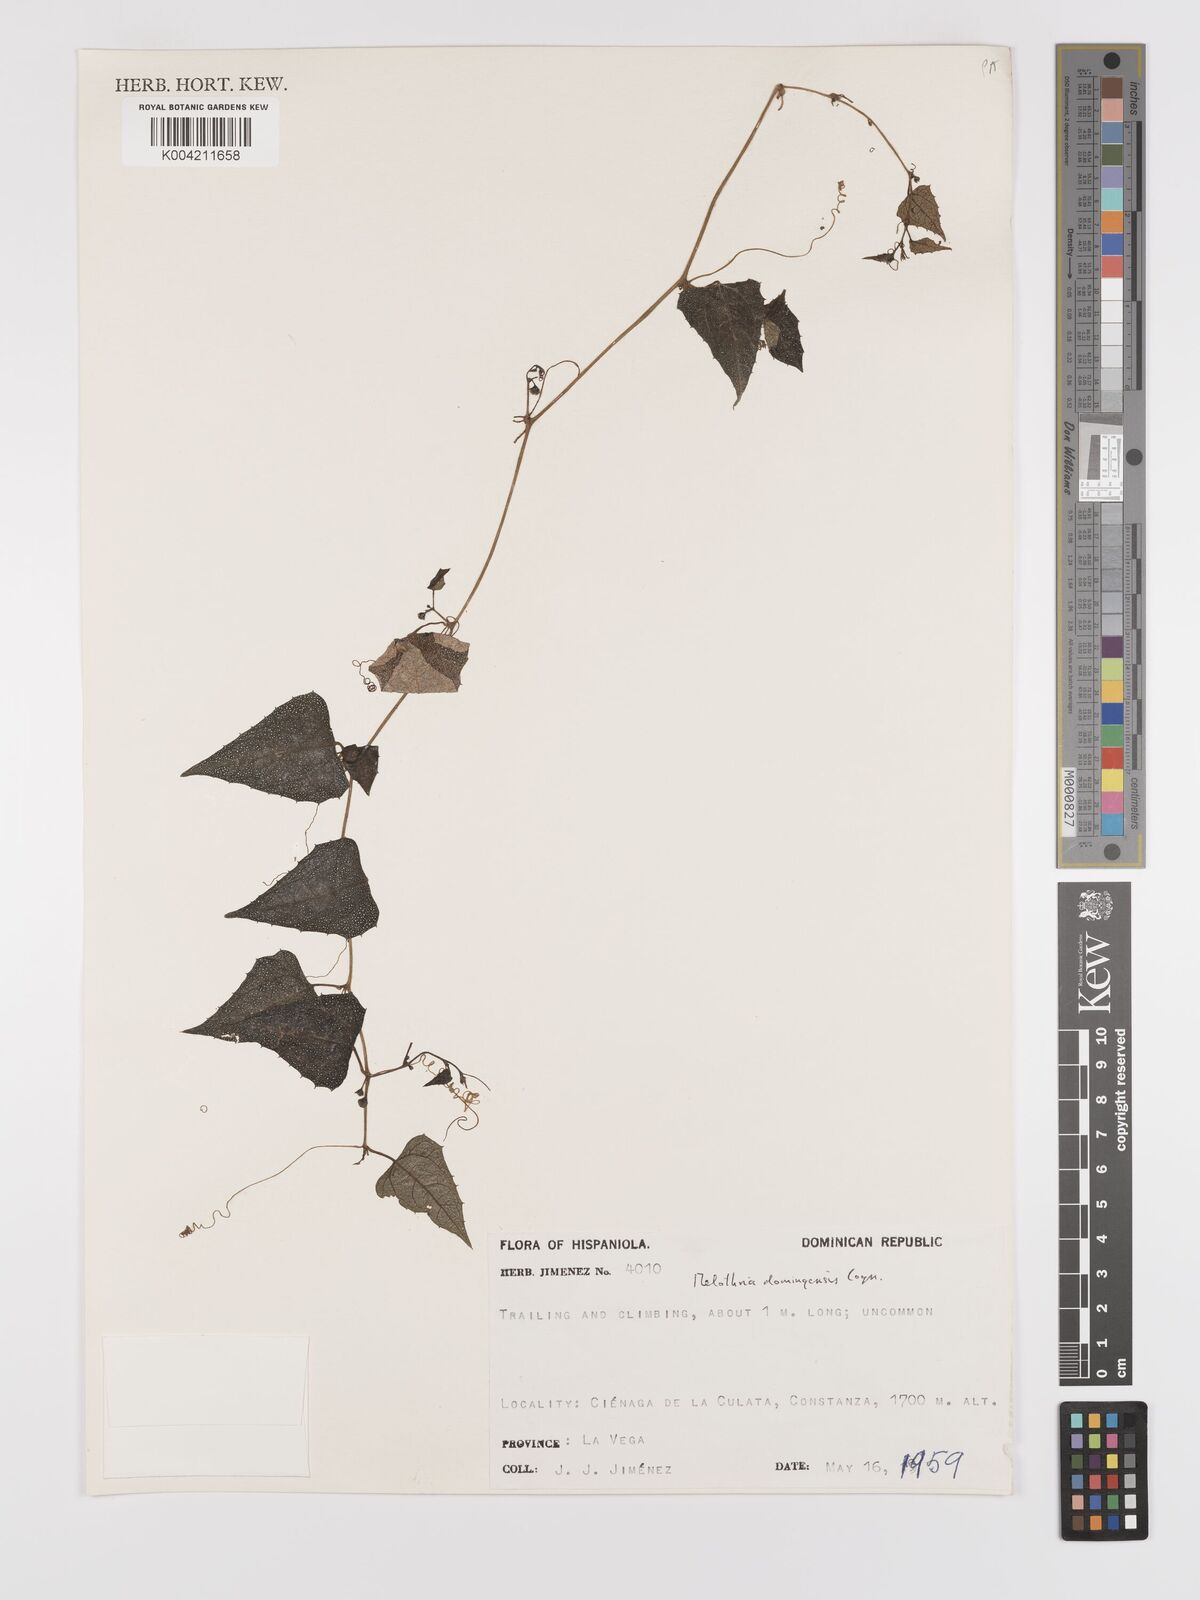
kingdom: Plantae
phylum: Tracheophyta
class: Magnoliopsida
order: Cucurbitales
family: Cucurbitaceae
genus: Cayaponia
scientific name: Cayaponia domingensis
